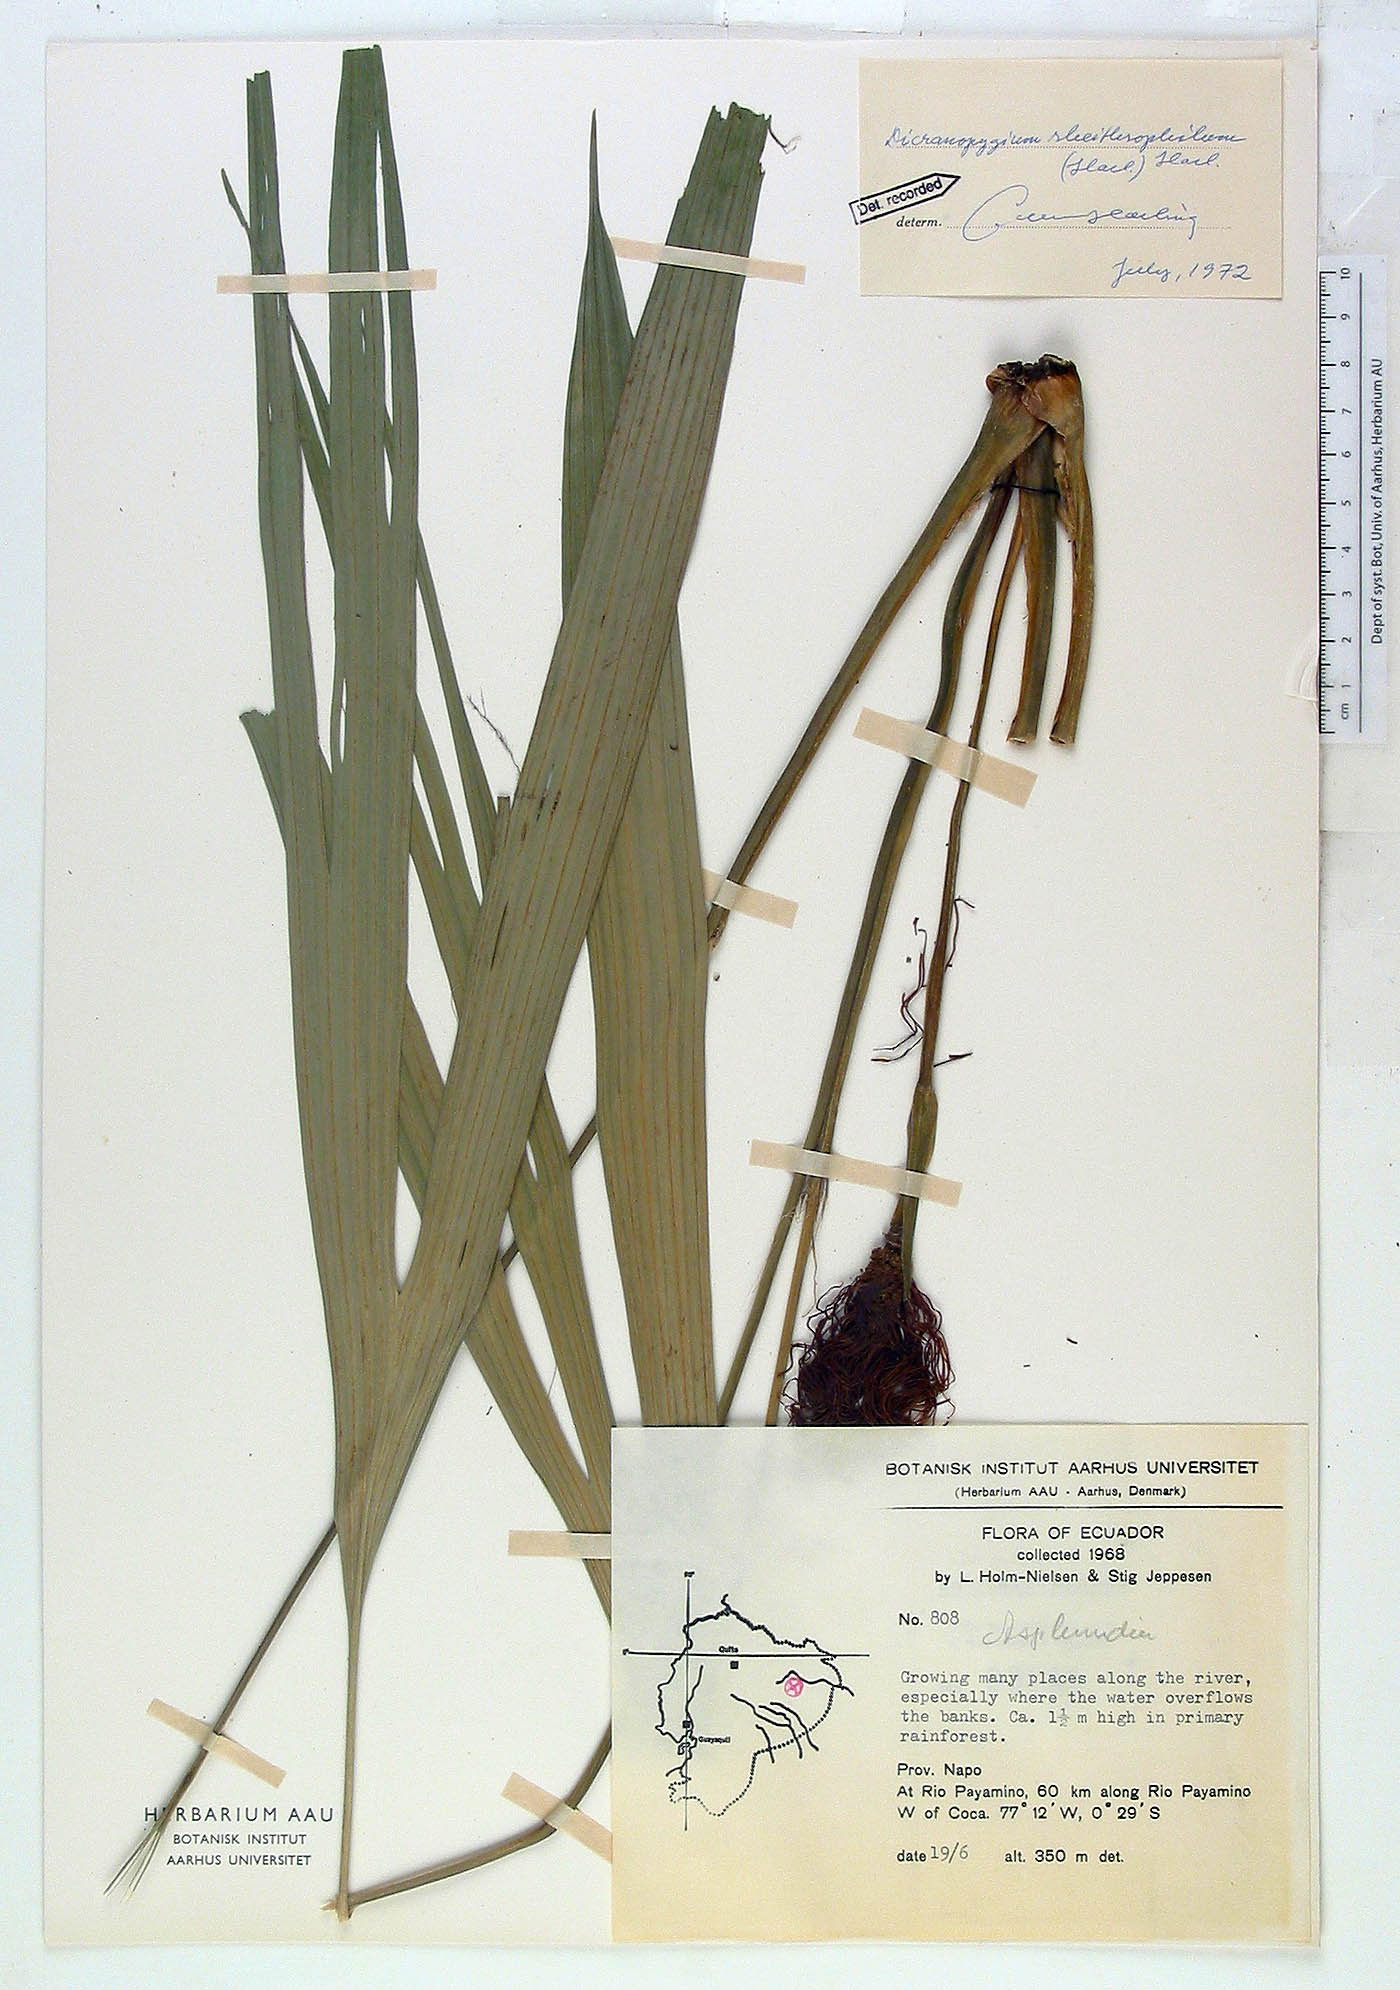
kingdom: Plantae
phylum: Tracheophyta
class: Liliopsida
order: Pandanales
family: Cyclanthaceae
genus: Dicranopygium
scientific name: Dicranopygium rheithrophilum
